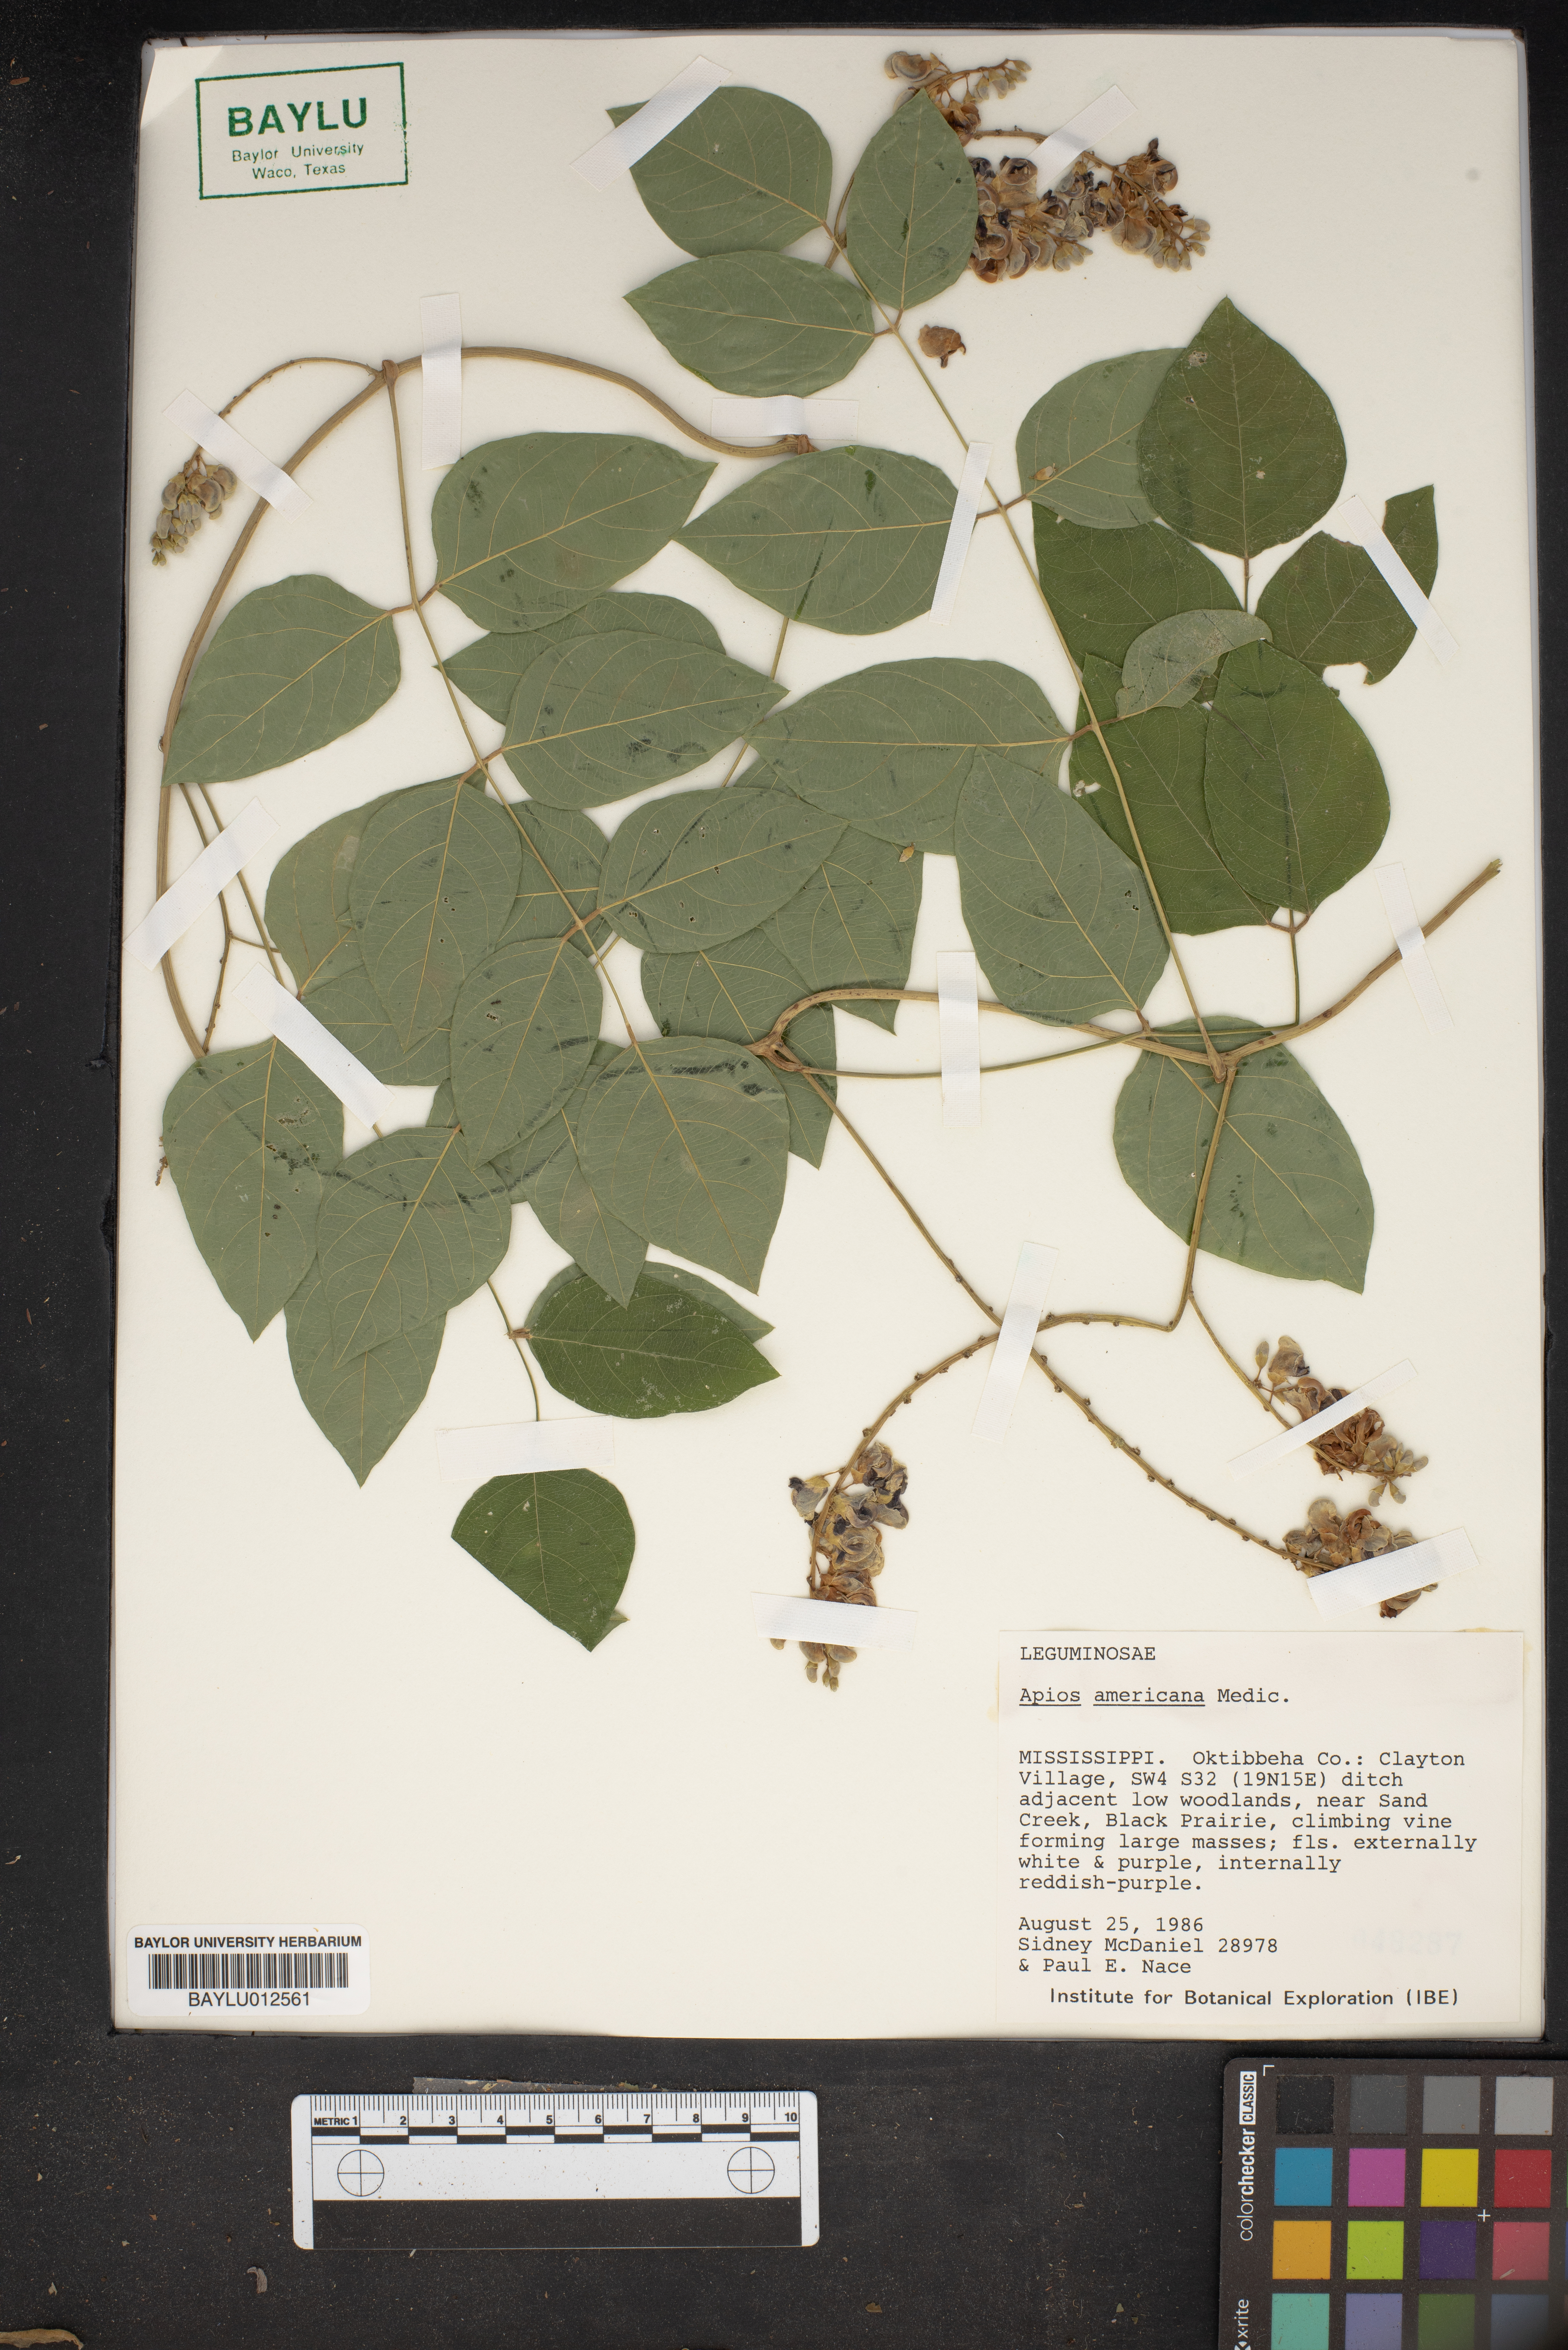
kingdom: Plantae
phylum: Tracheophyta
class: Magnoliopsida
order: Fabales
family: Fabaceae
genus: Apios
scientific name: Apios americana
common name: American potato-bean
